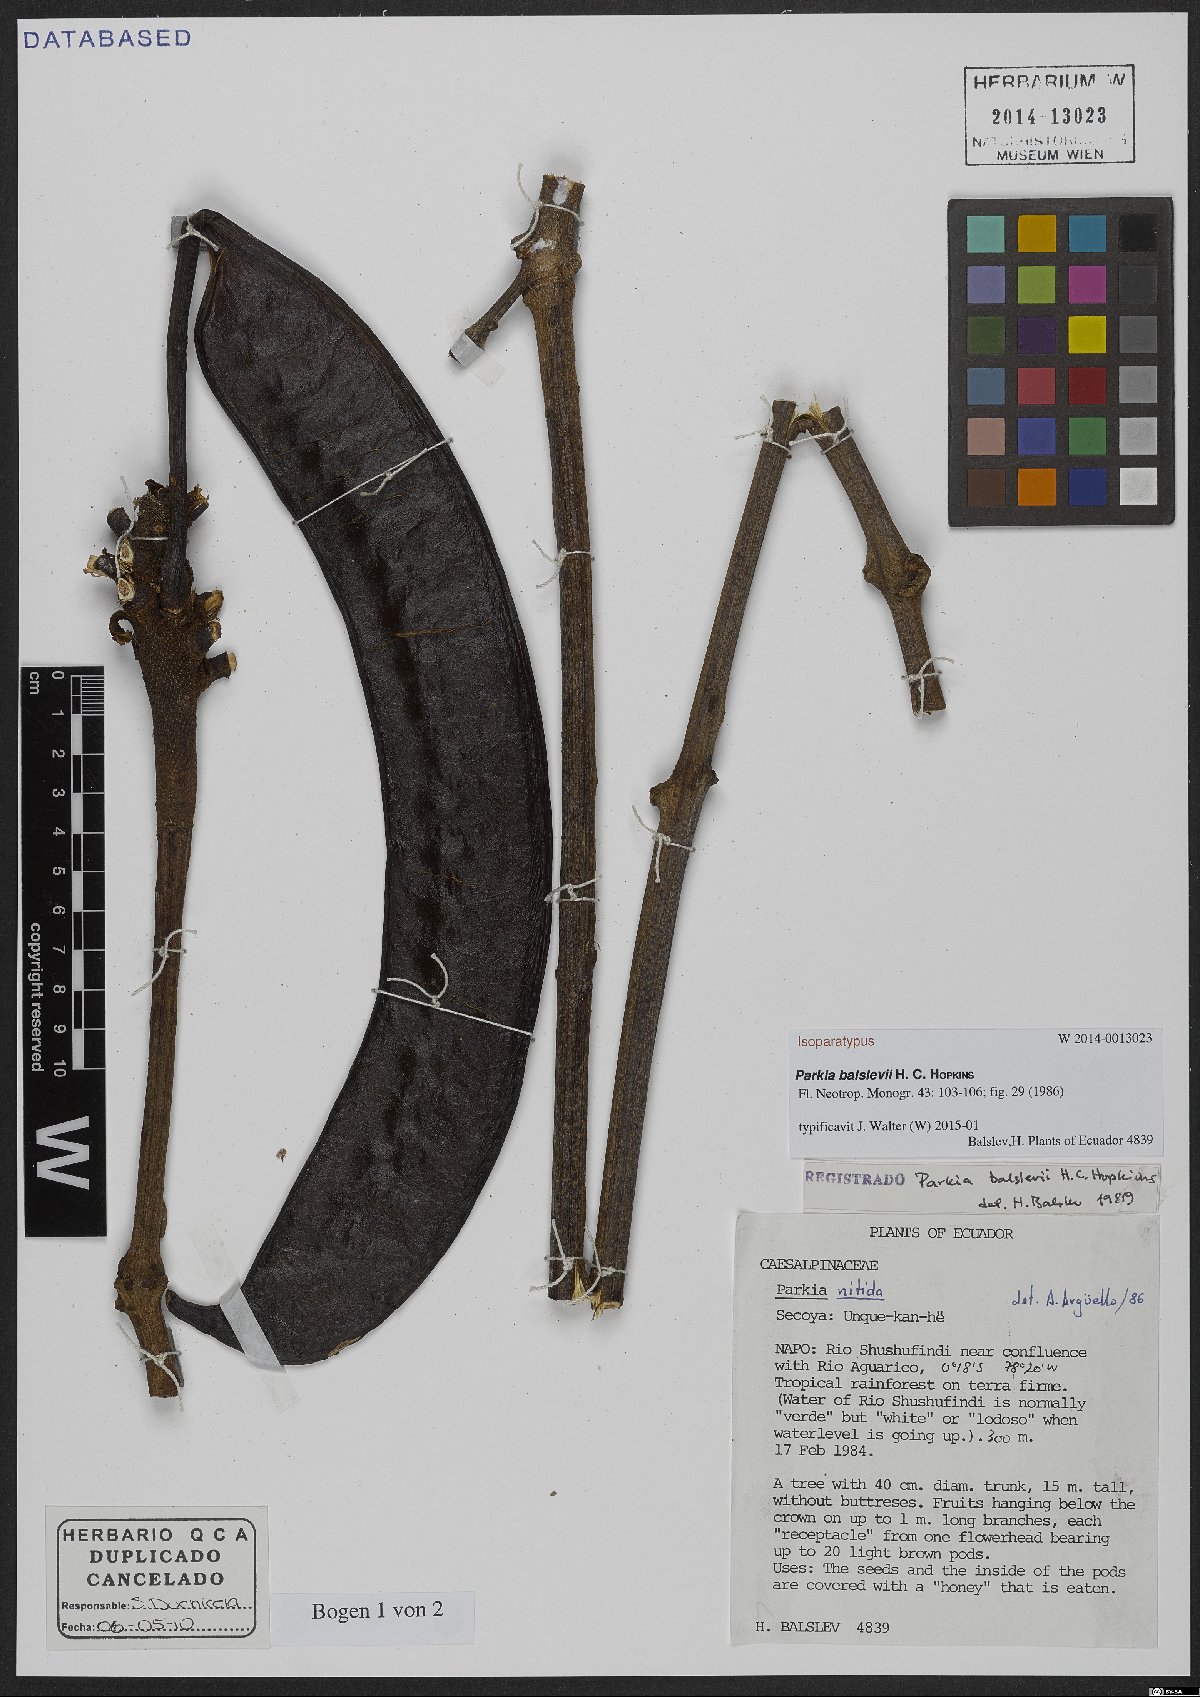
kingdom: Plantae
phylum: Tracheophyta
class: Magnoliopsida
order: Fabales
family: Fabaceae
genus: Parkia
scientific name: Parkia balslevii
